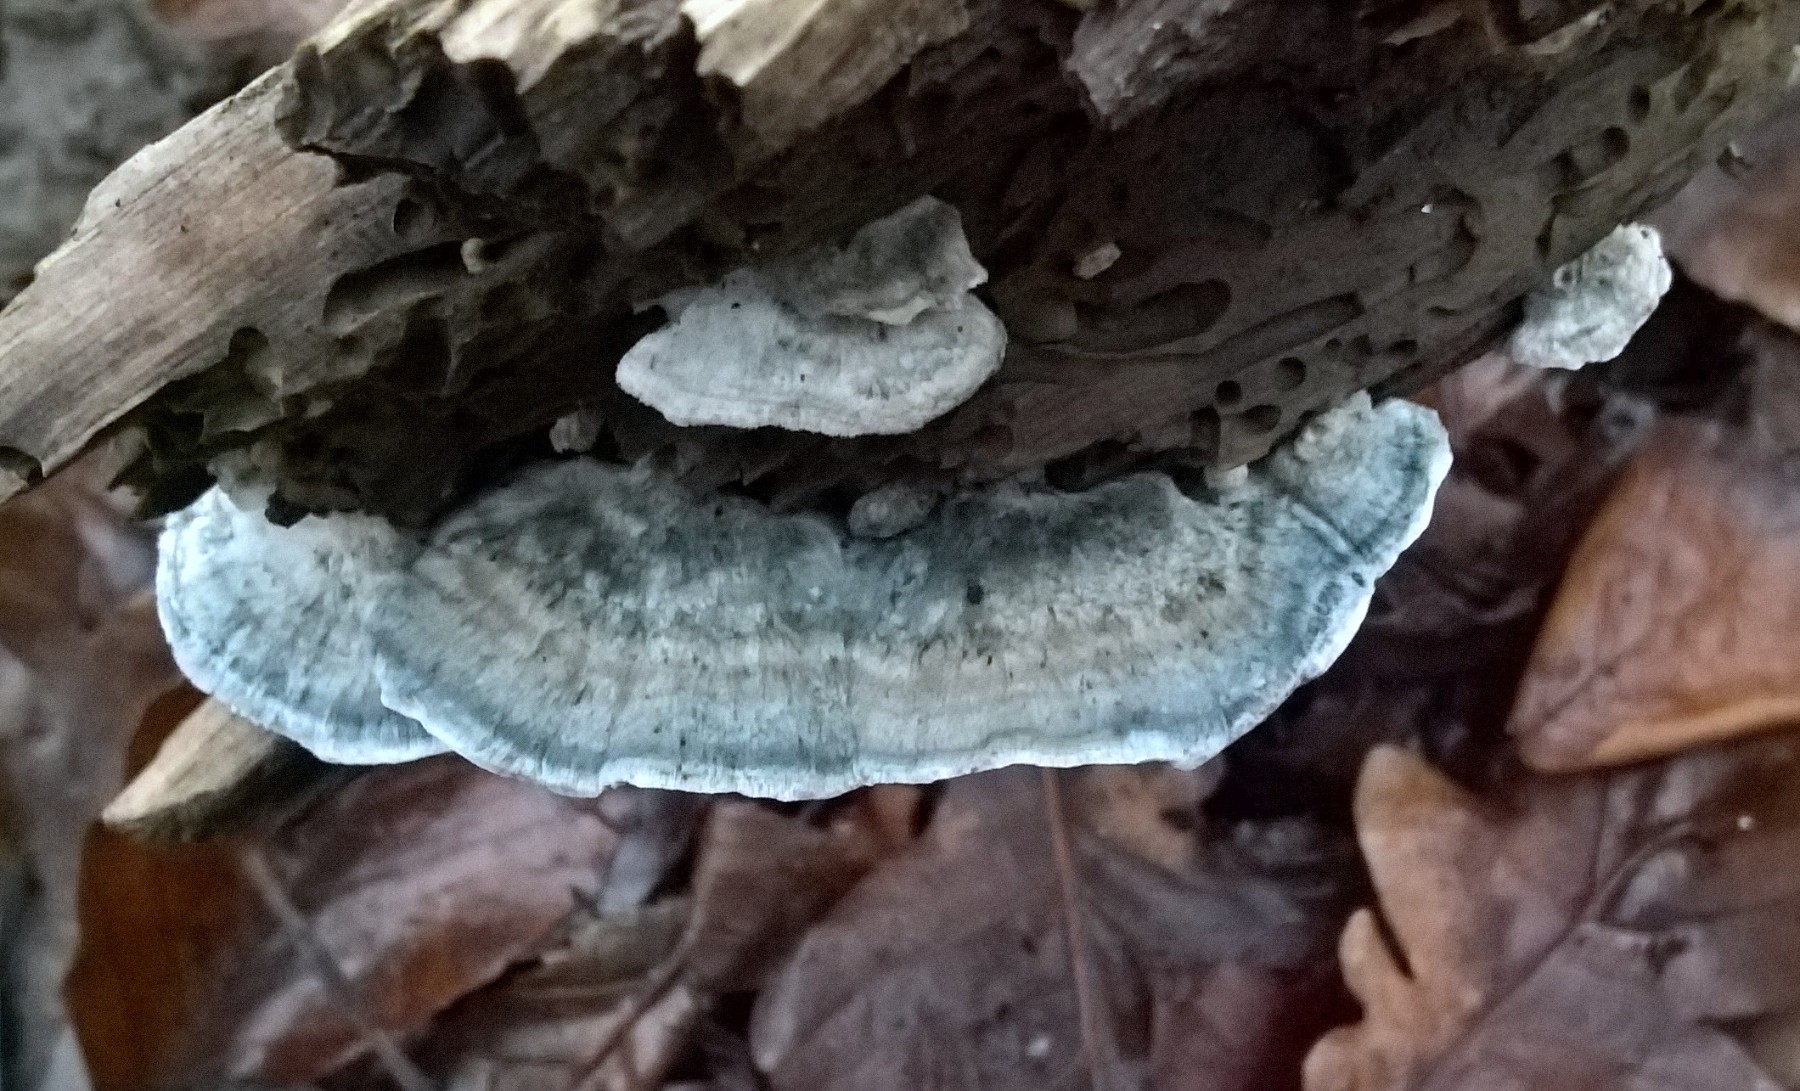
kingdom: Fungi
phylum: Basidiomycota
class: Agaricomycetes
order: Polyporales
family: Dacryobolaceae
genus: Postia
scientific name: Postia
